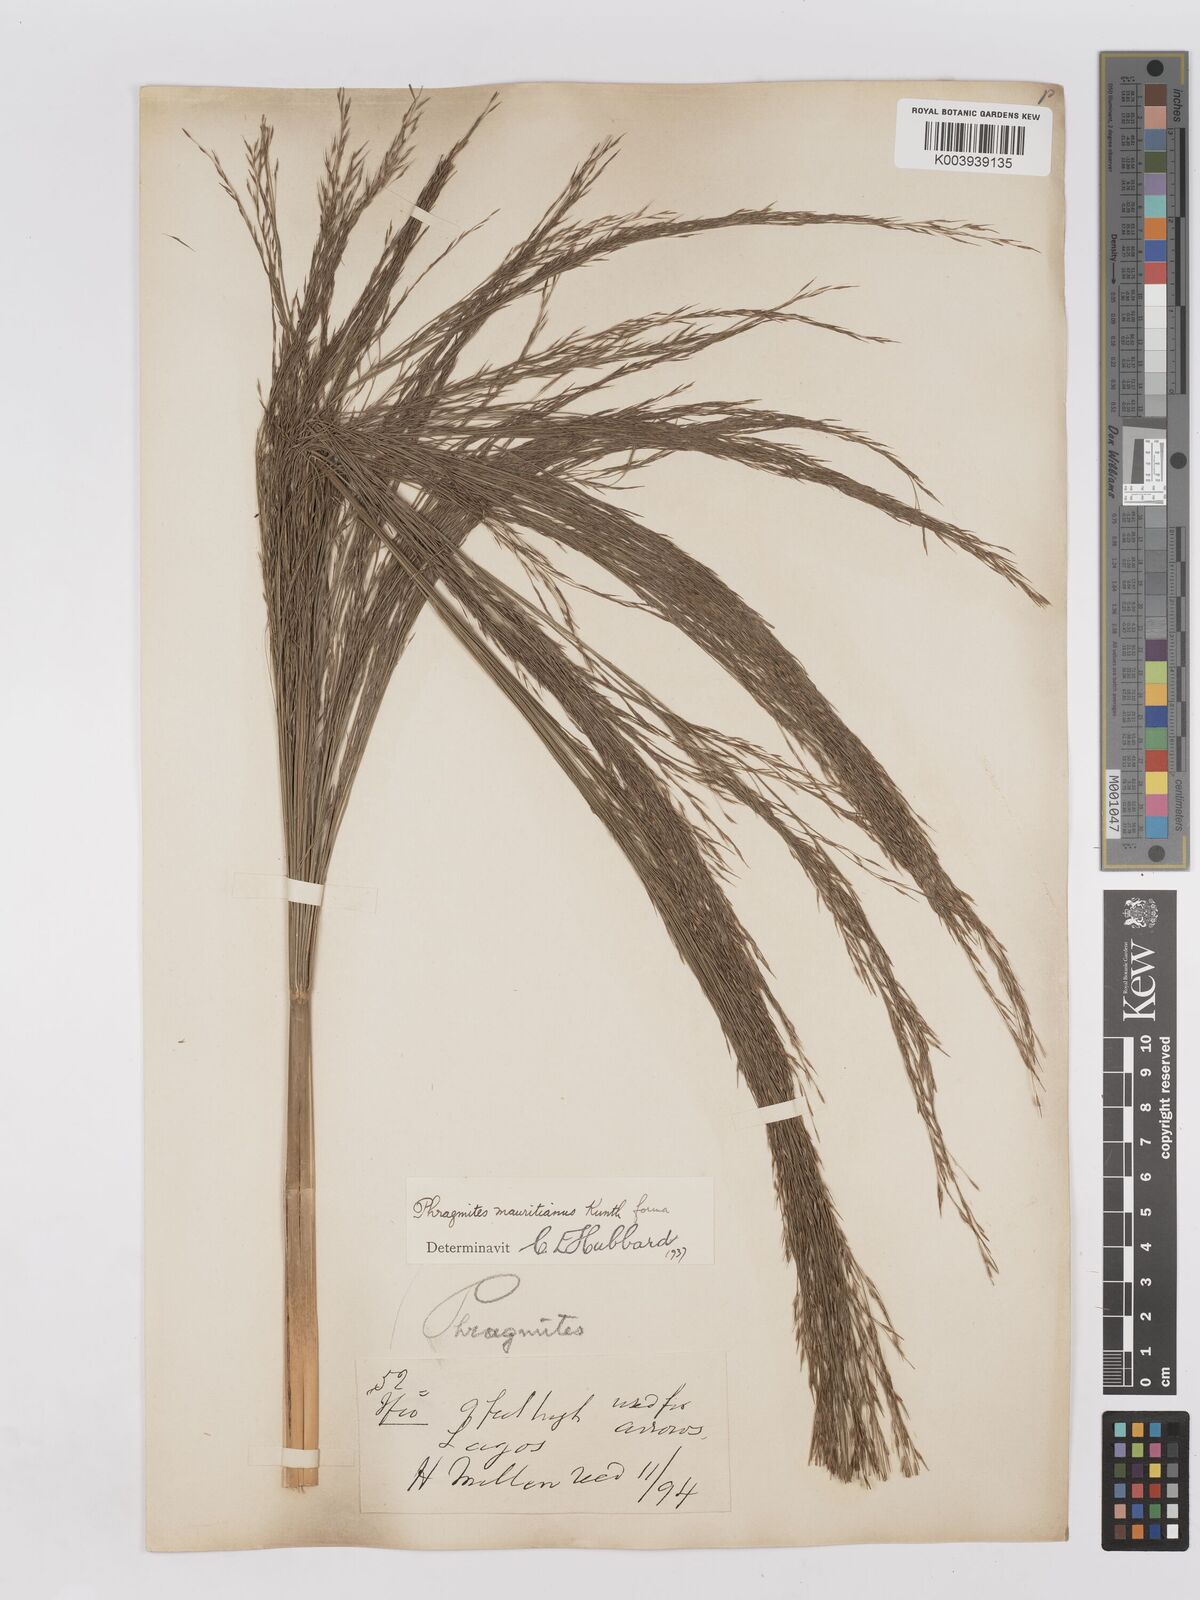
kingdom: Plantae
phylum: Tracheophyta
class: Liliopsida
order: Poales
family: Poaceae
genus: Phragmites
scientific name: Phragmites karka
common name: Tropical reed
